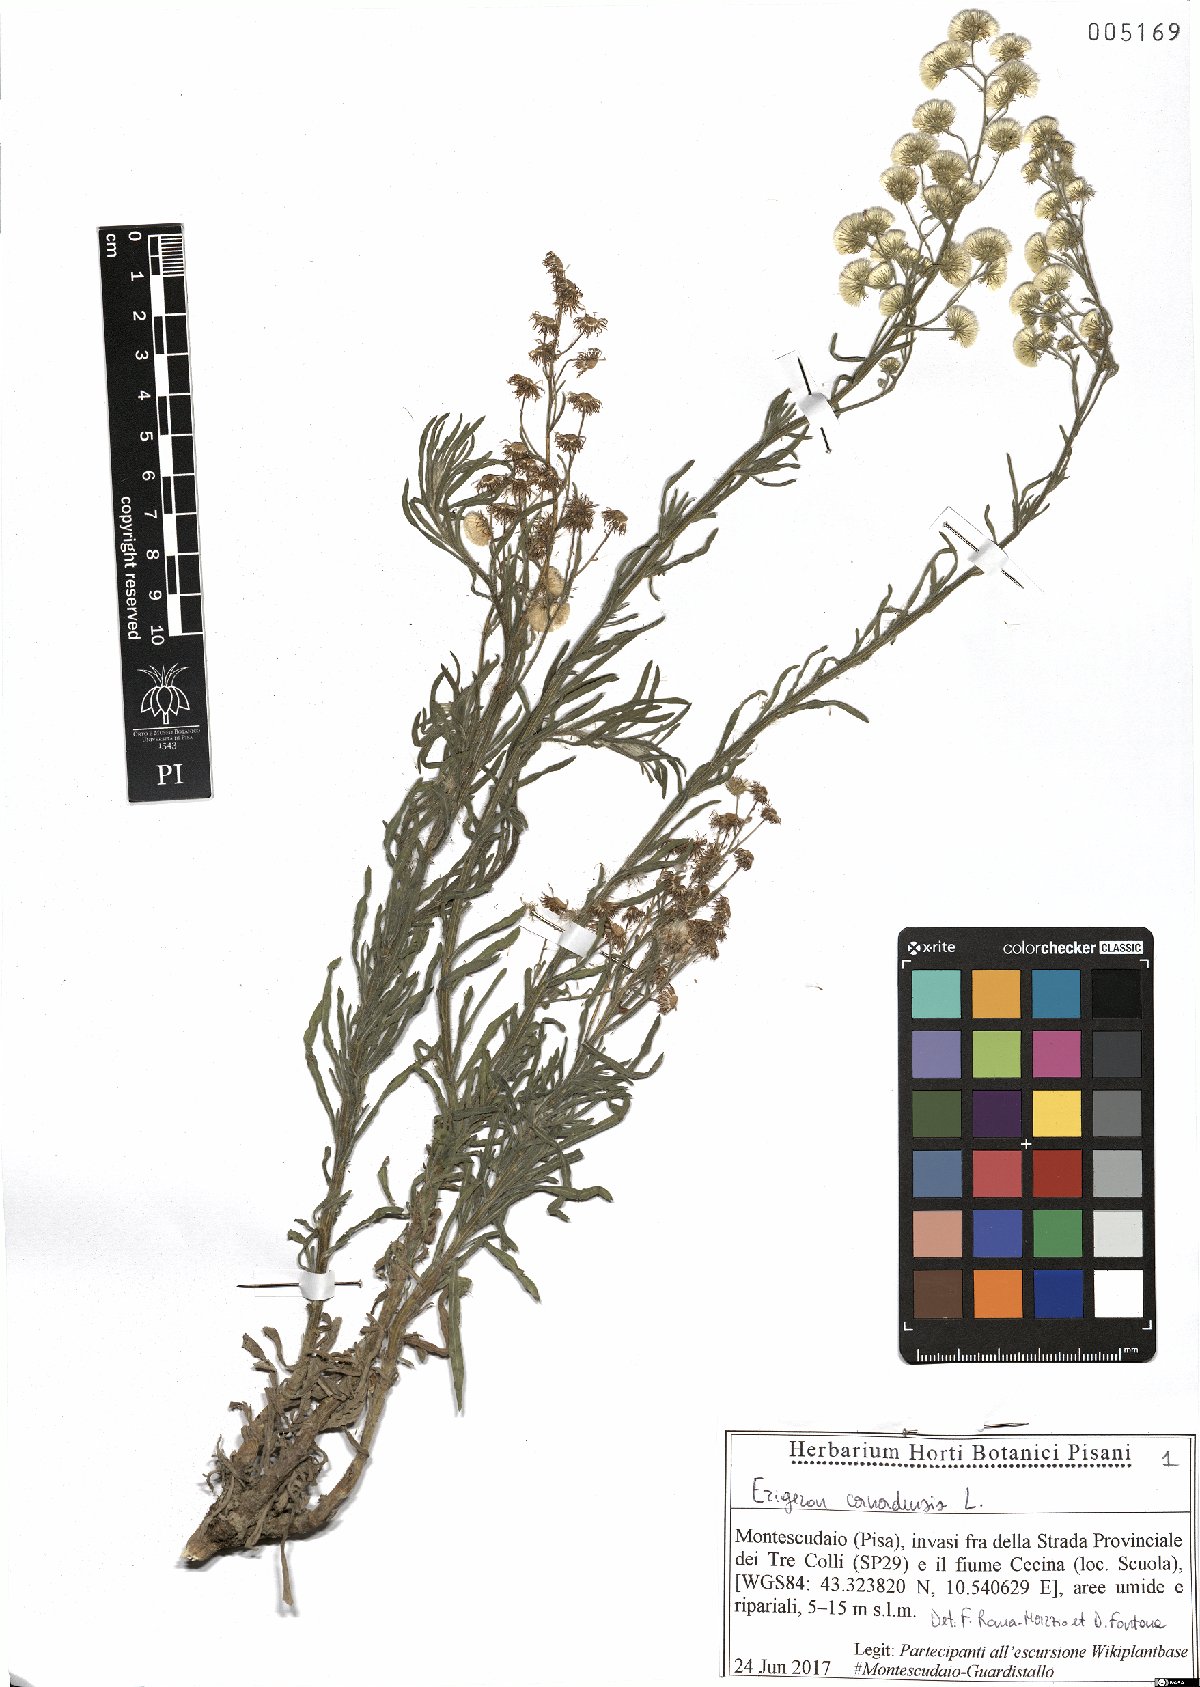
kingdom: Plantae
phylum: Tracheophyta
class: Magnoliopsida
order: Asterales
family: Asteraceae
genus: Erigeron
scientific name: Erigeron canadensis
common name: Canadian fleabane
